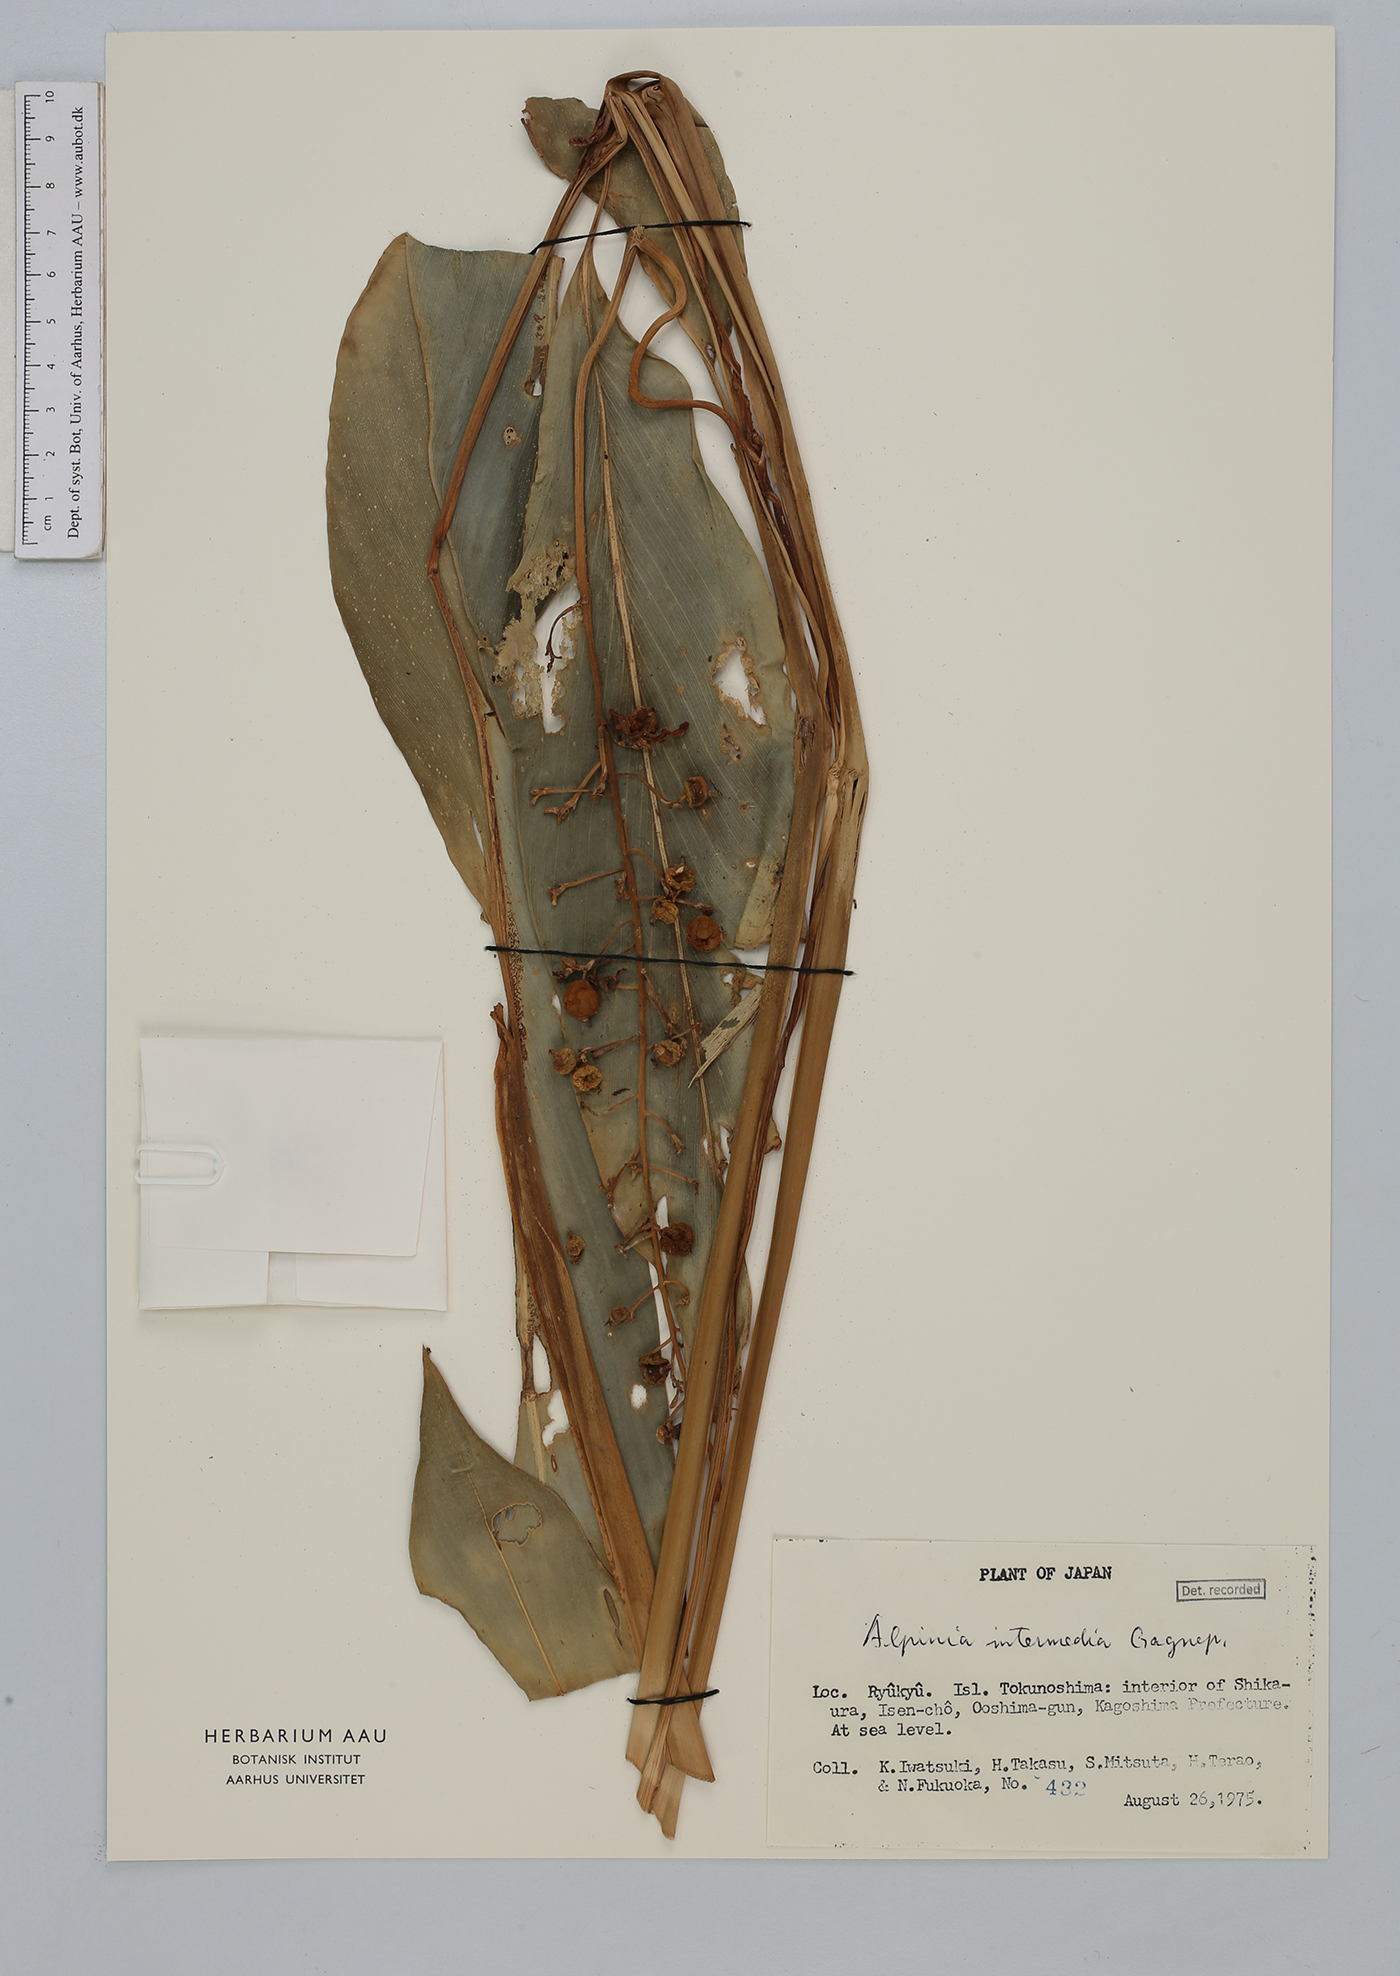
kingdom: Plantae
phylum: Tracheophyta
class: Liliopsida
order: Zingiberales
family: Zingiberaceae
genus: Alpinia
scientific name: Alpinia intermedia
